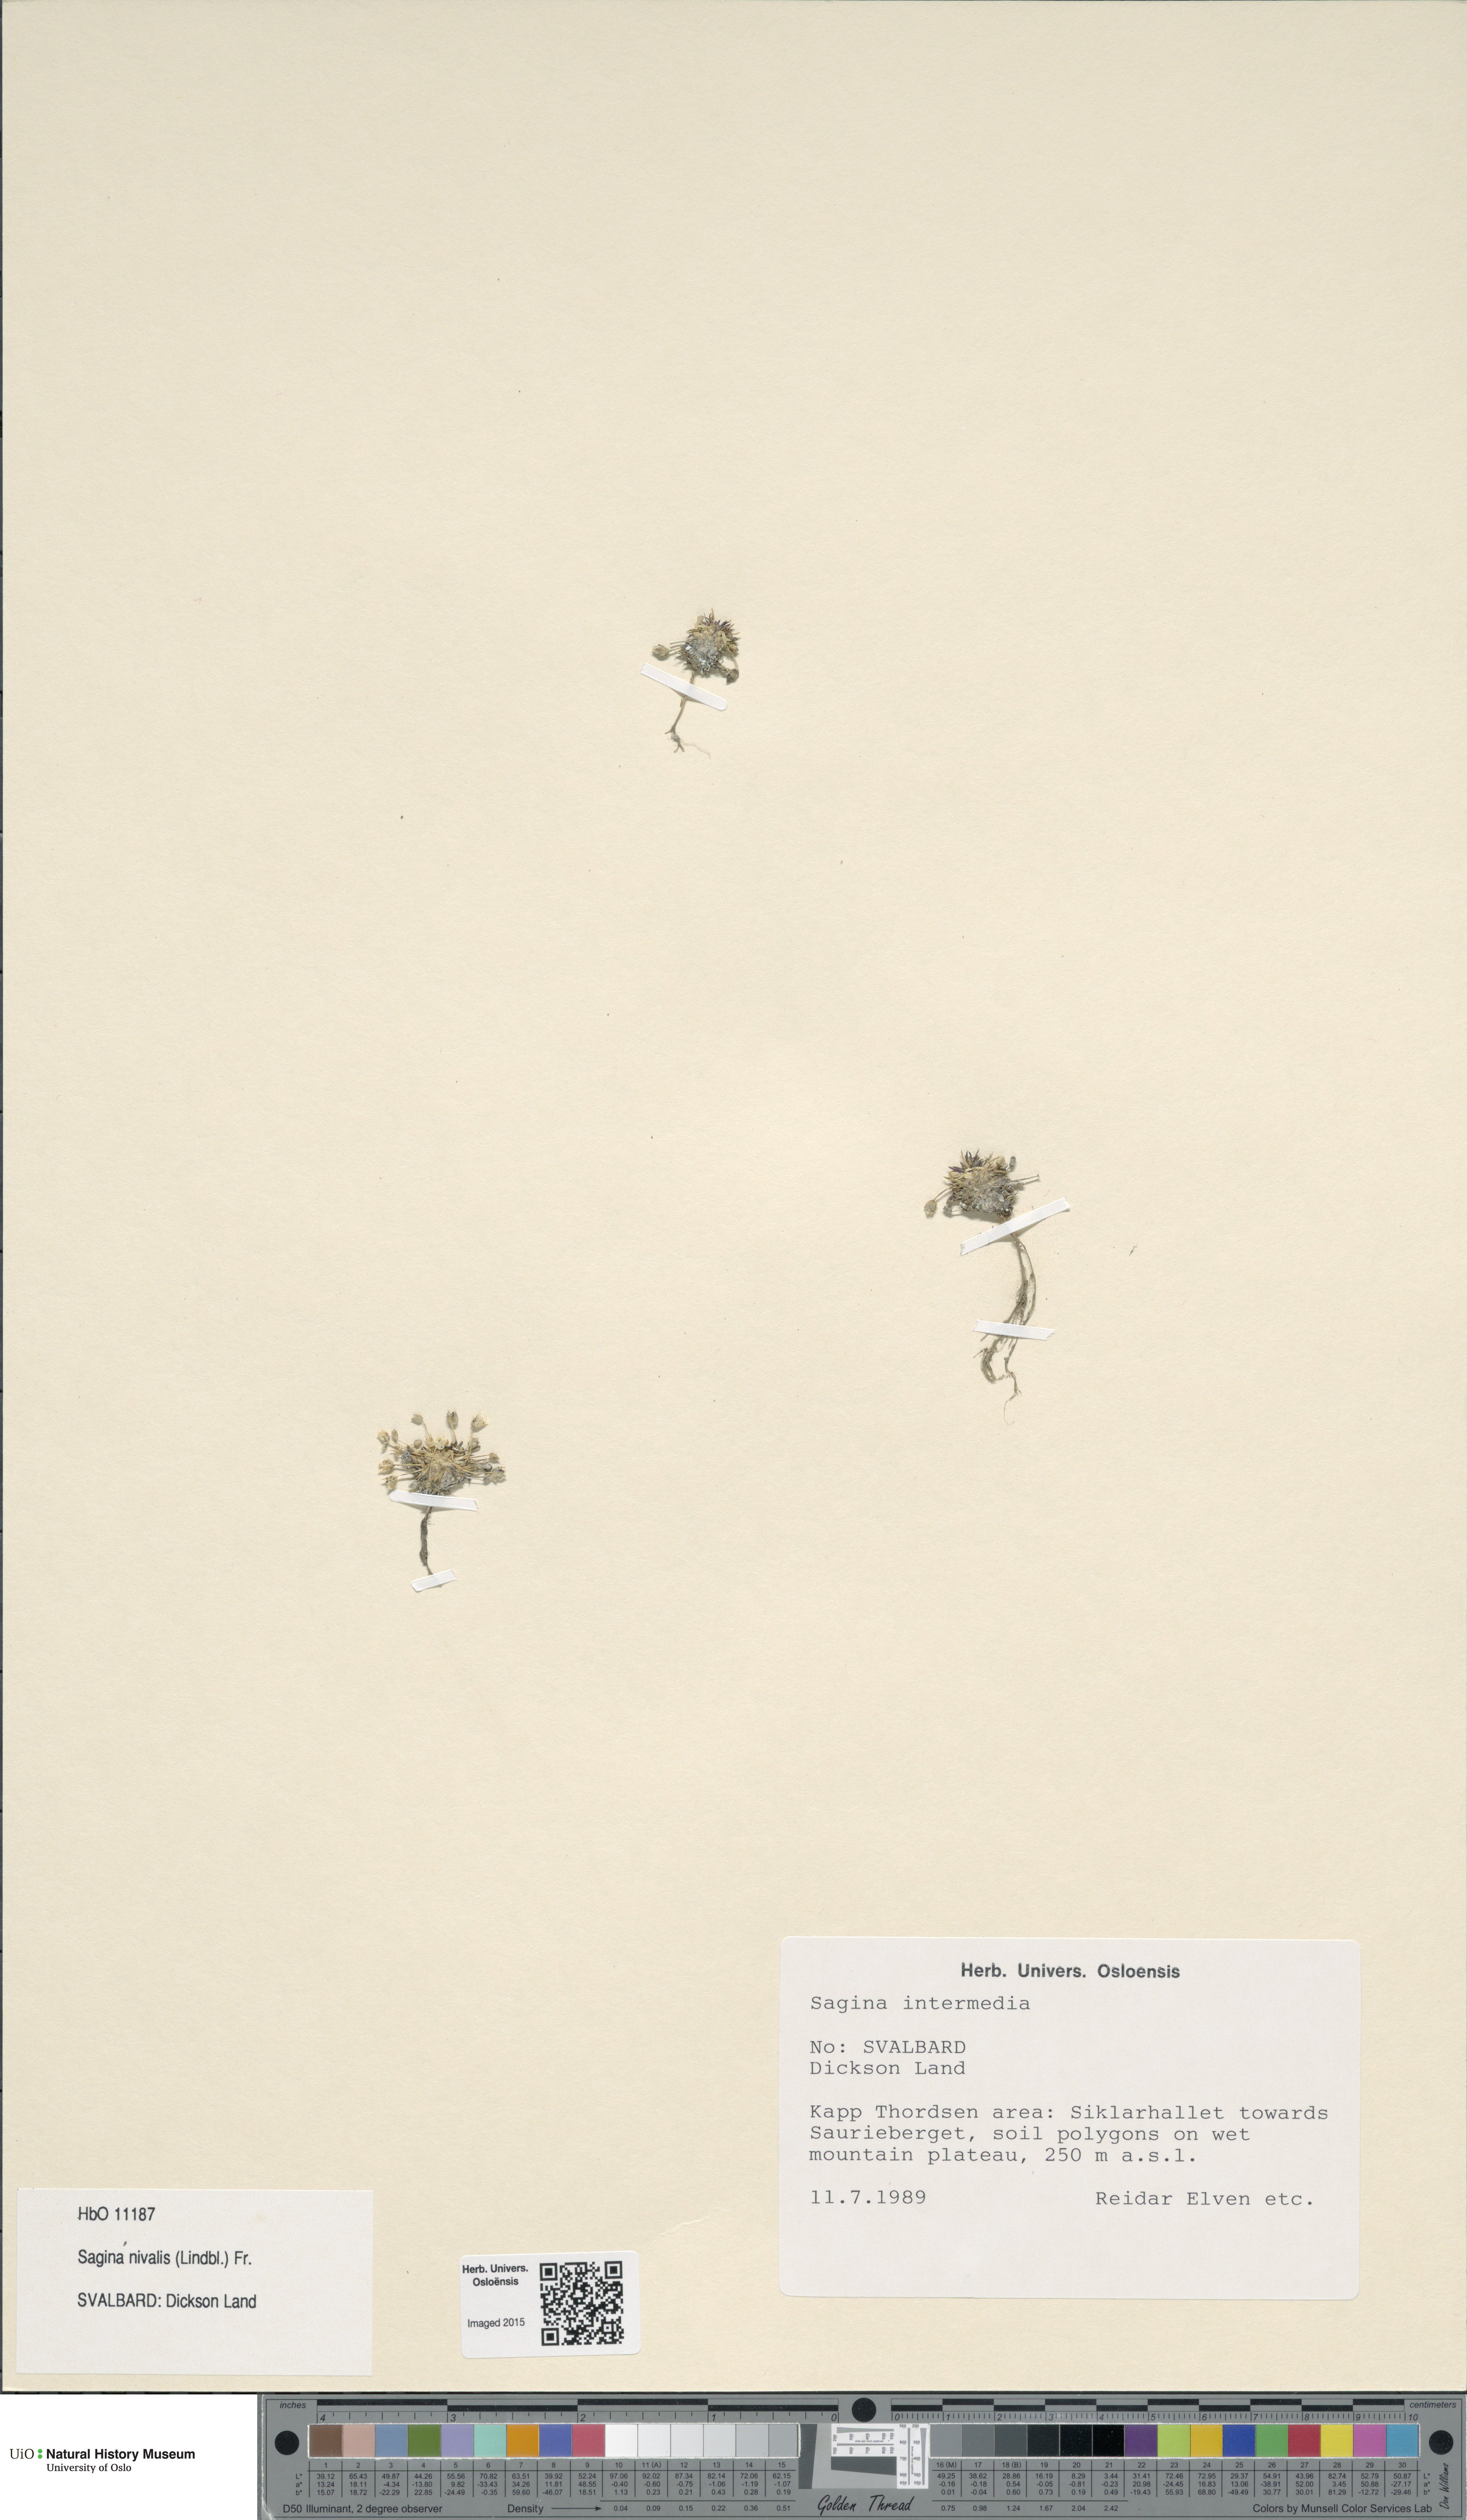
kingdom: Plantae
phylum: Tracheophyta
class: Magnoliopsida
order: Caryophyllales
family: Caryophyllaceae
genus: Sagina
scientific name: Sagina nivalis
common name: Snow pearlwort
